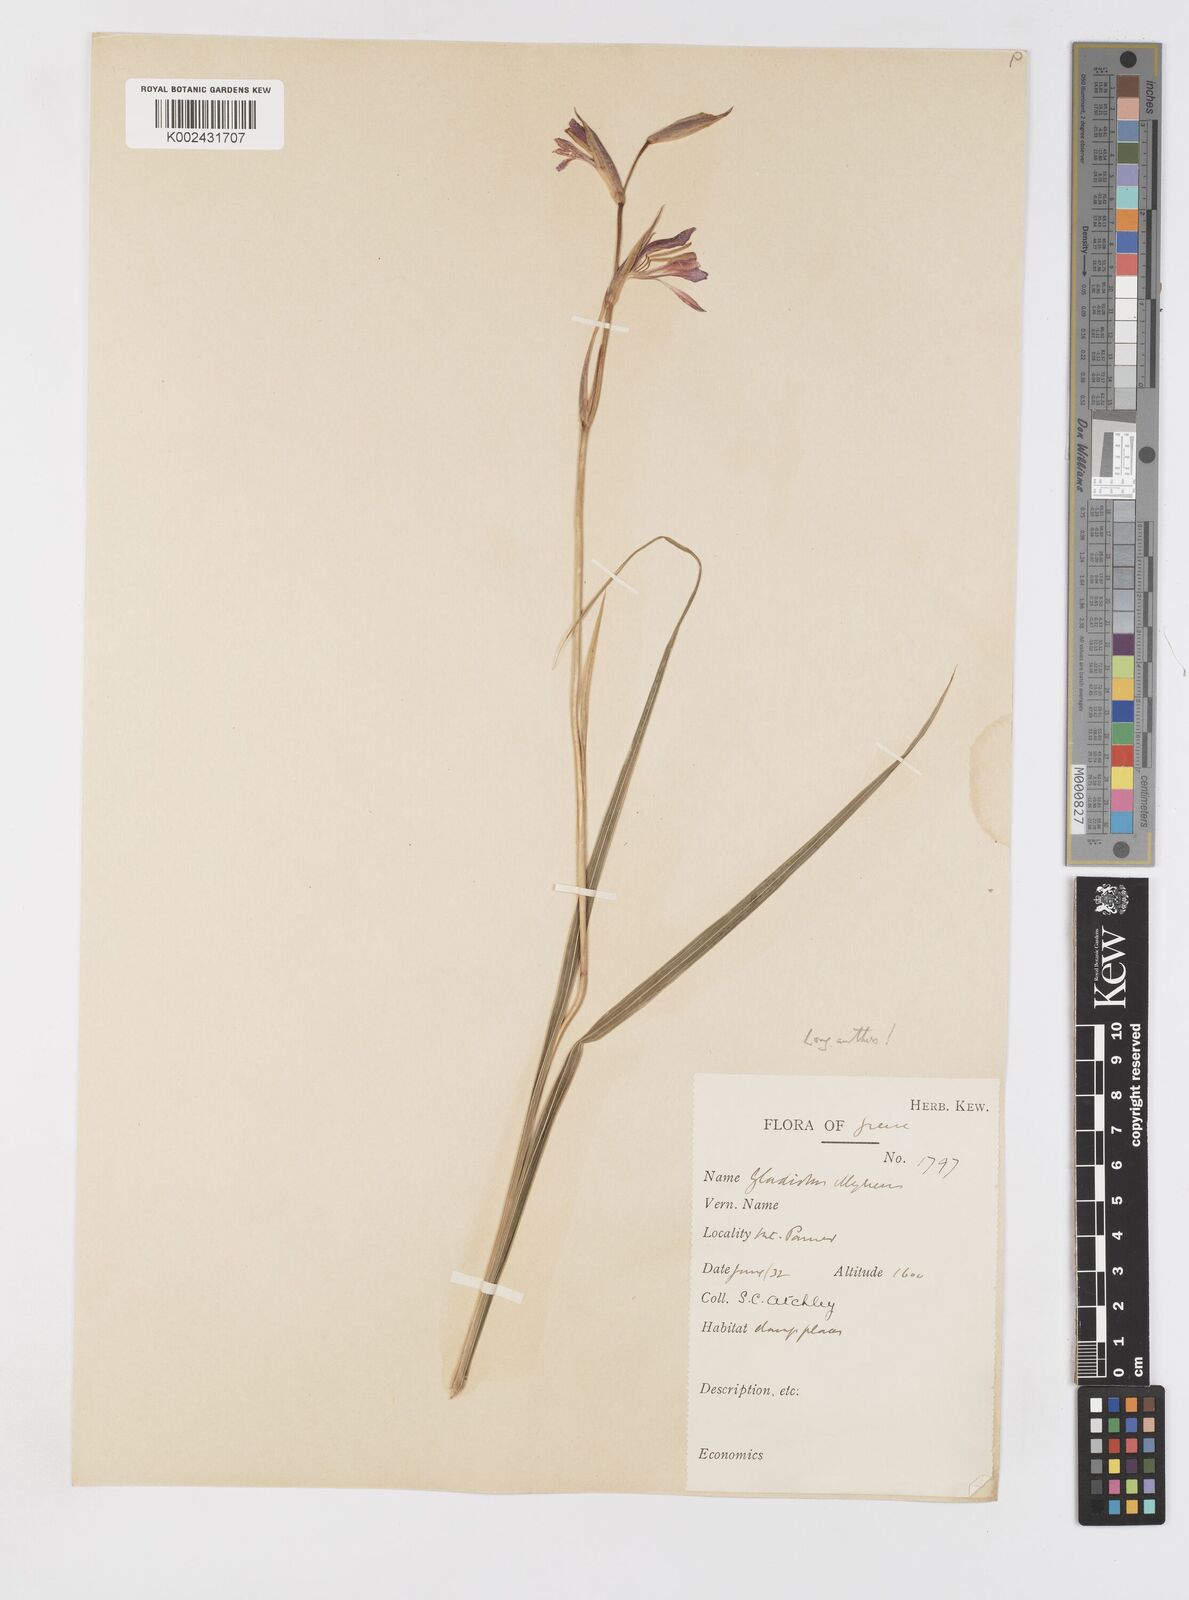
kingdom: Plantae
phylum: Tracheophyta
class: Liliopsida
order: Asparagales
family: Iridaceae
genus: Gladiolus
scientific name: Gladiolus illyricus
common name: Wild gladiolus
